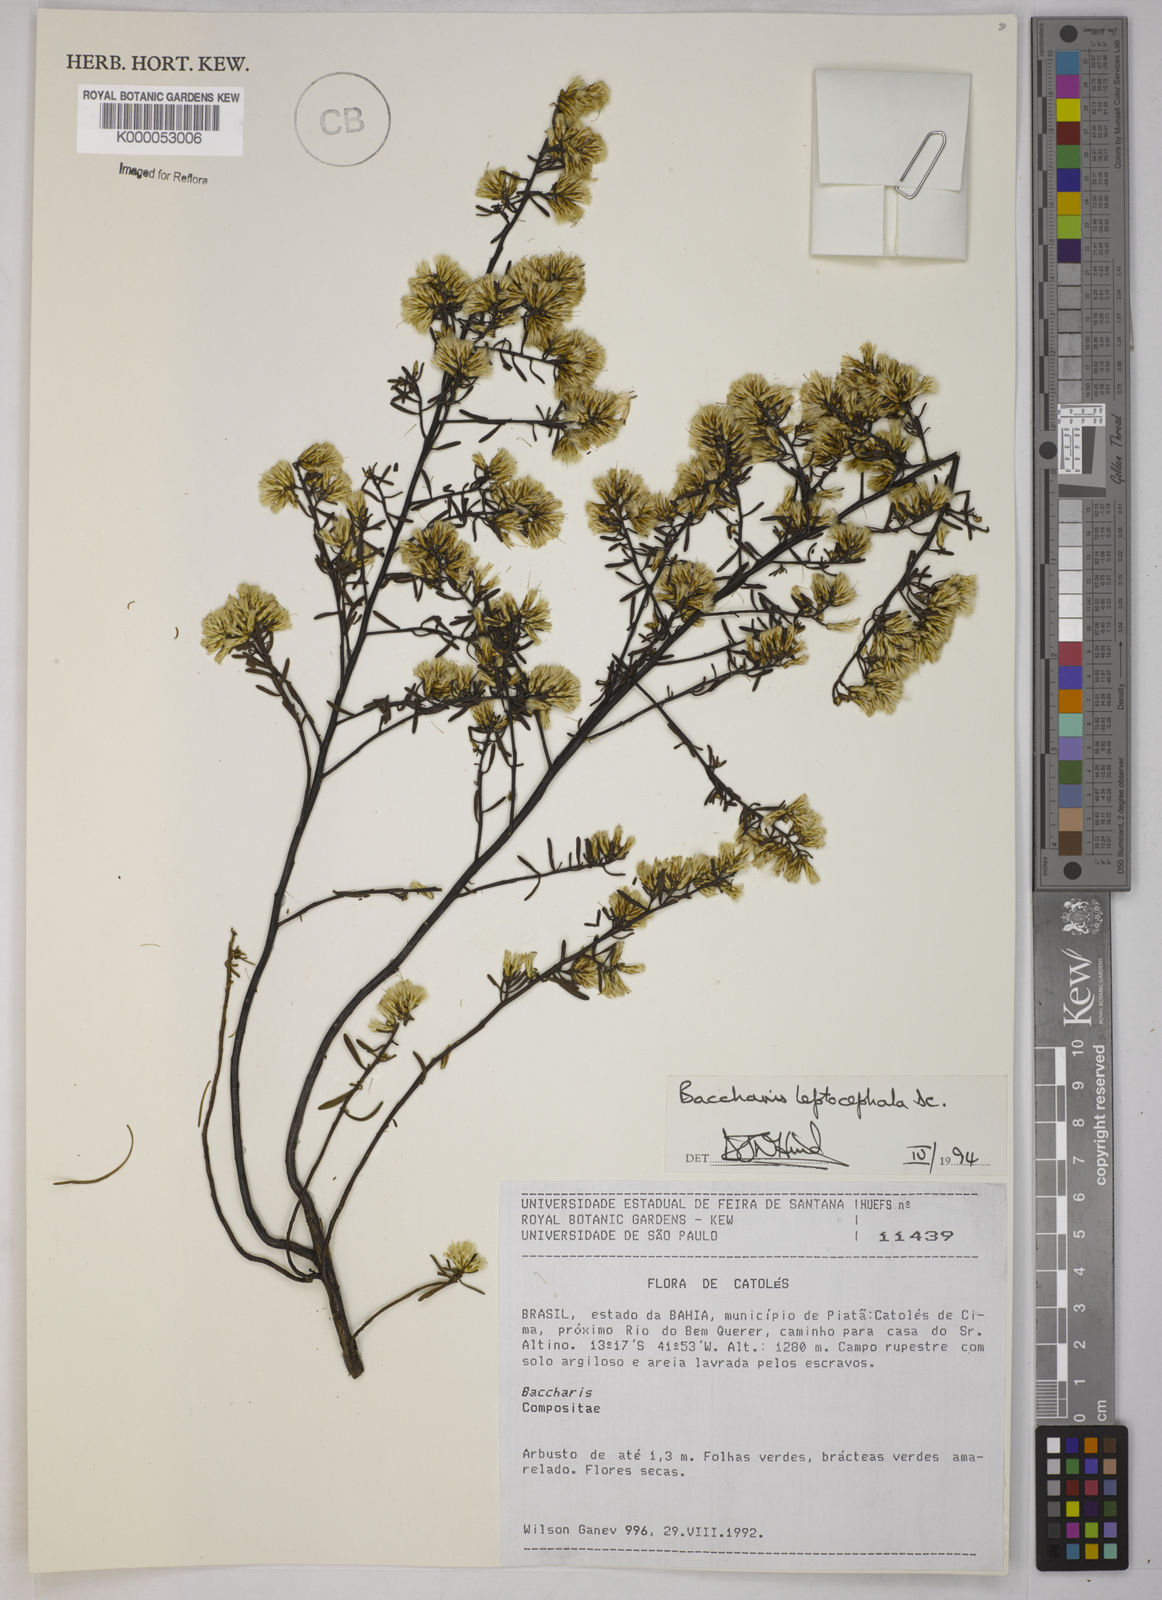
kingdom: Plantae
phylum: Tracheophyta
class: Magnoliopsida
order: Asterales
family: Asteraceae
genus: Baccharis
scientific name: Baccharis leptocephala
